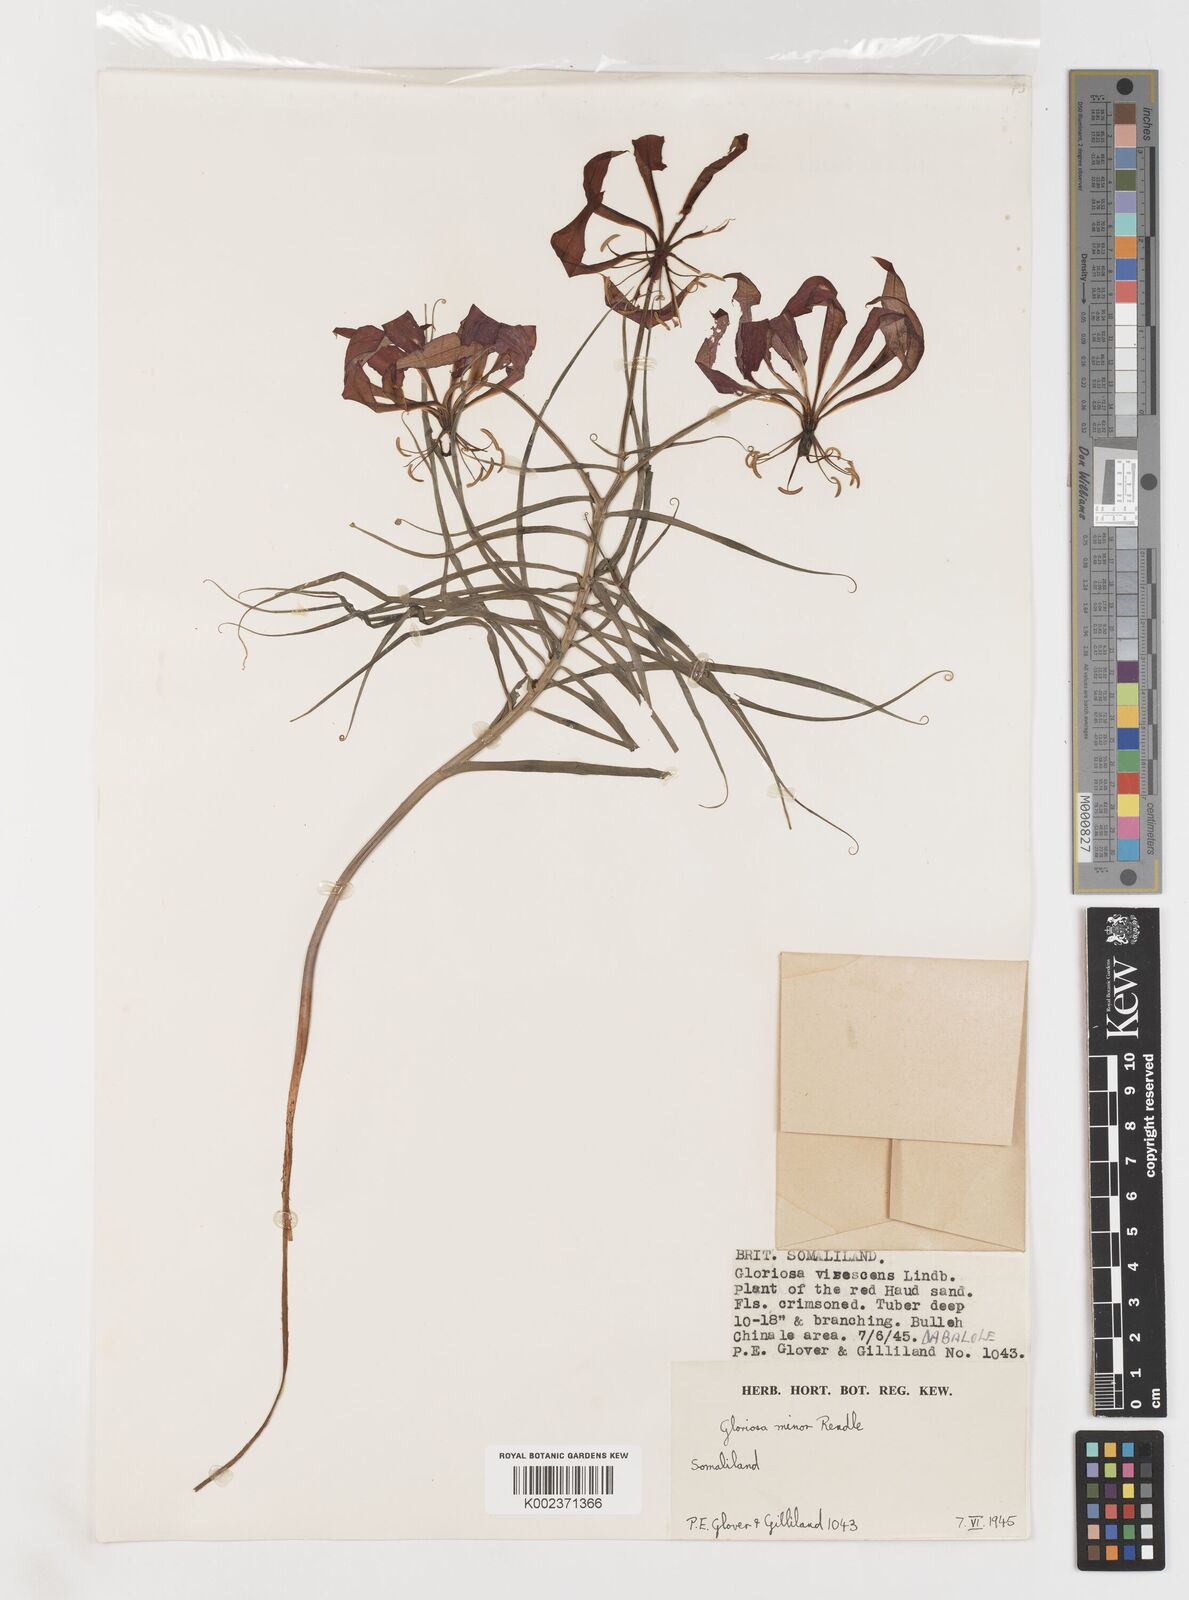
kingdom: Plantae
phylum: Tracheophyta
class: Liliopsida
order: Liliales
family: Colchicaceae
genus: Gloriosa
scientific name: Gloriosa baudii
